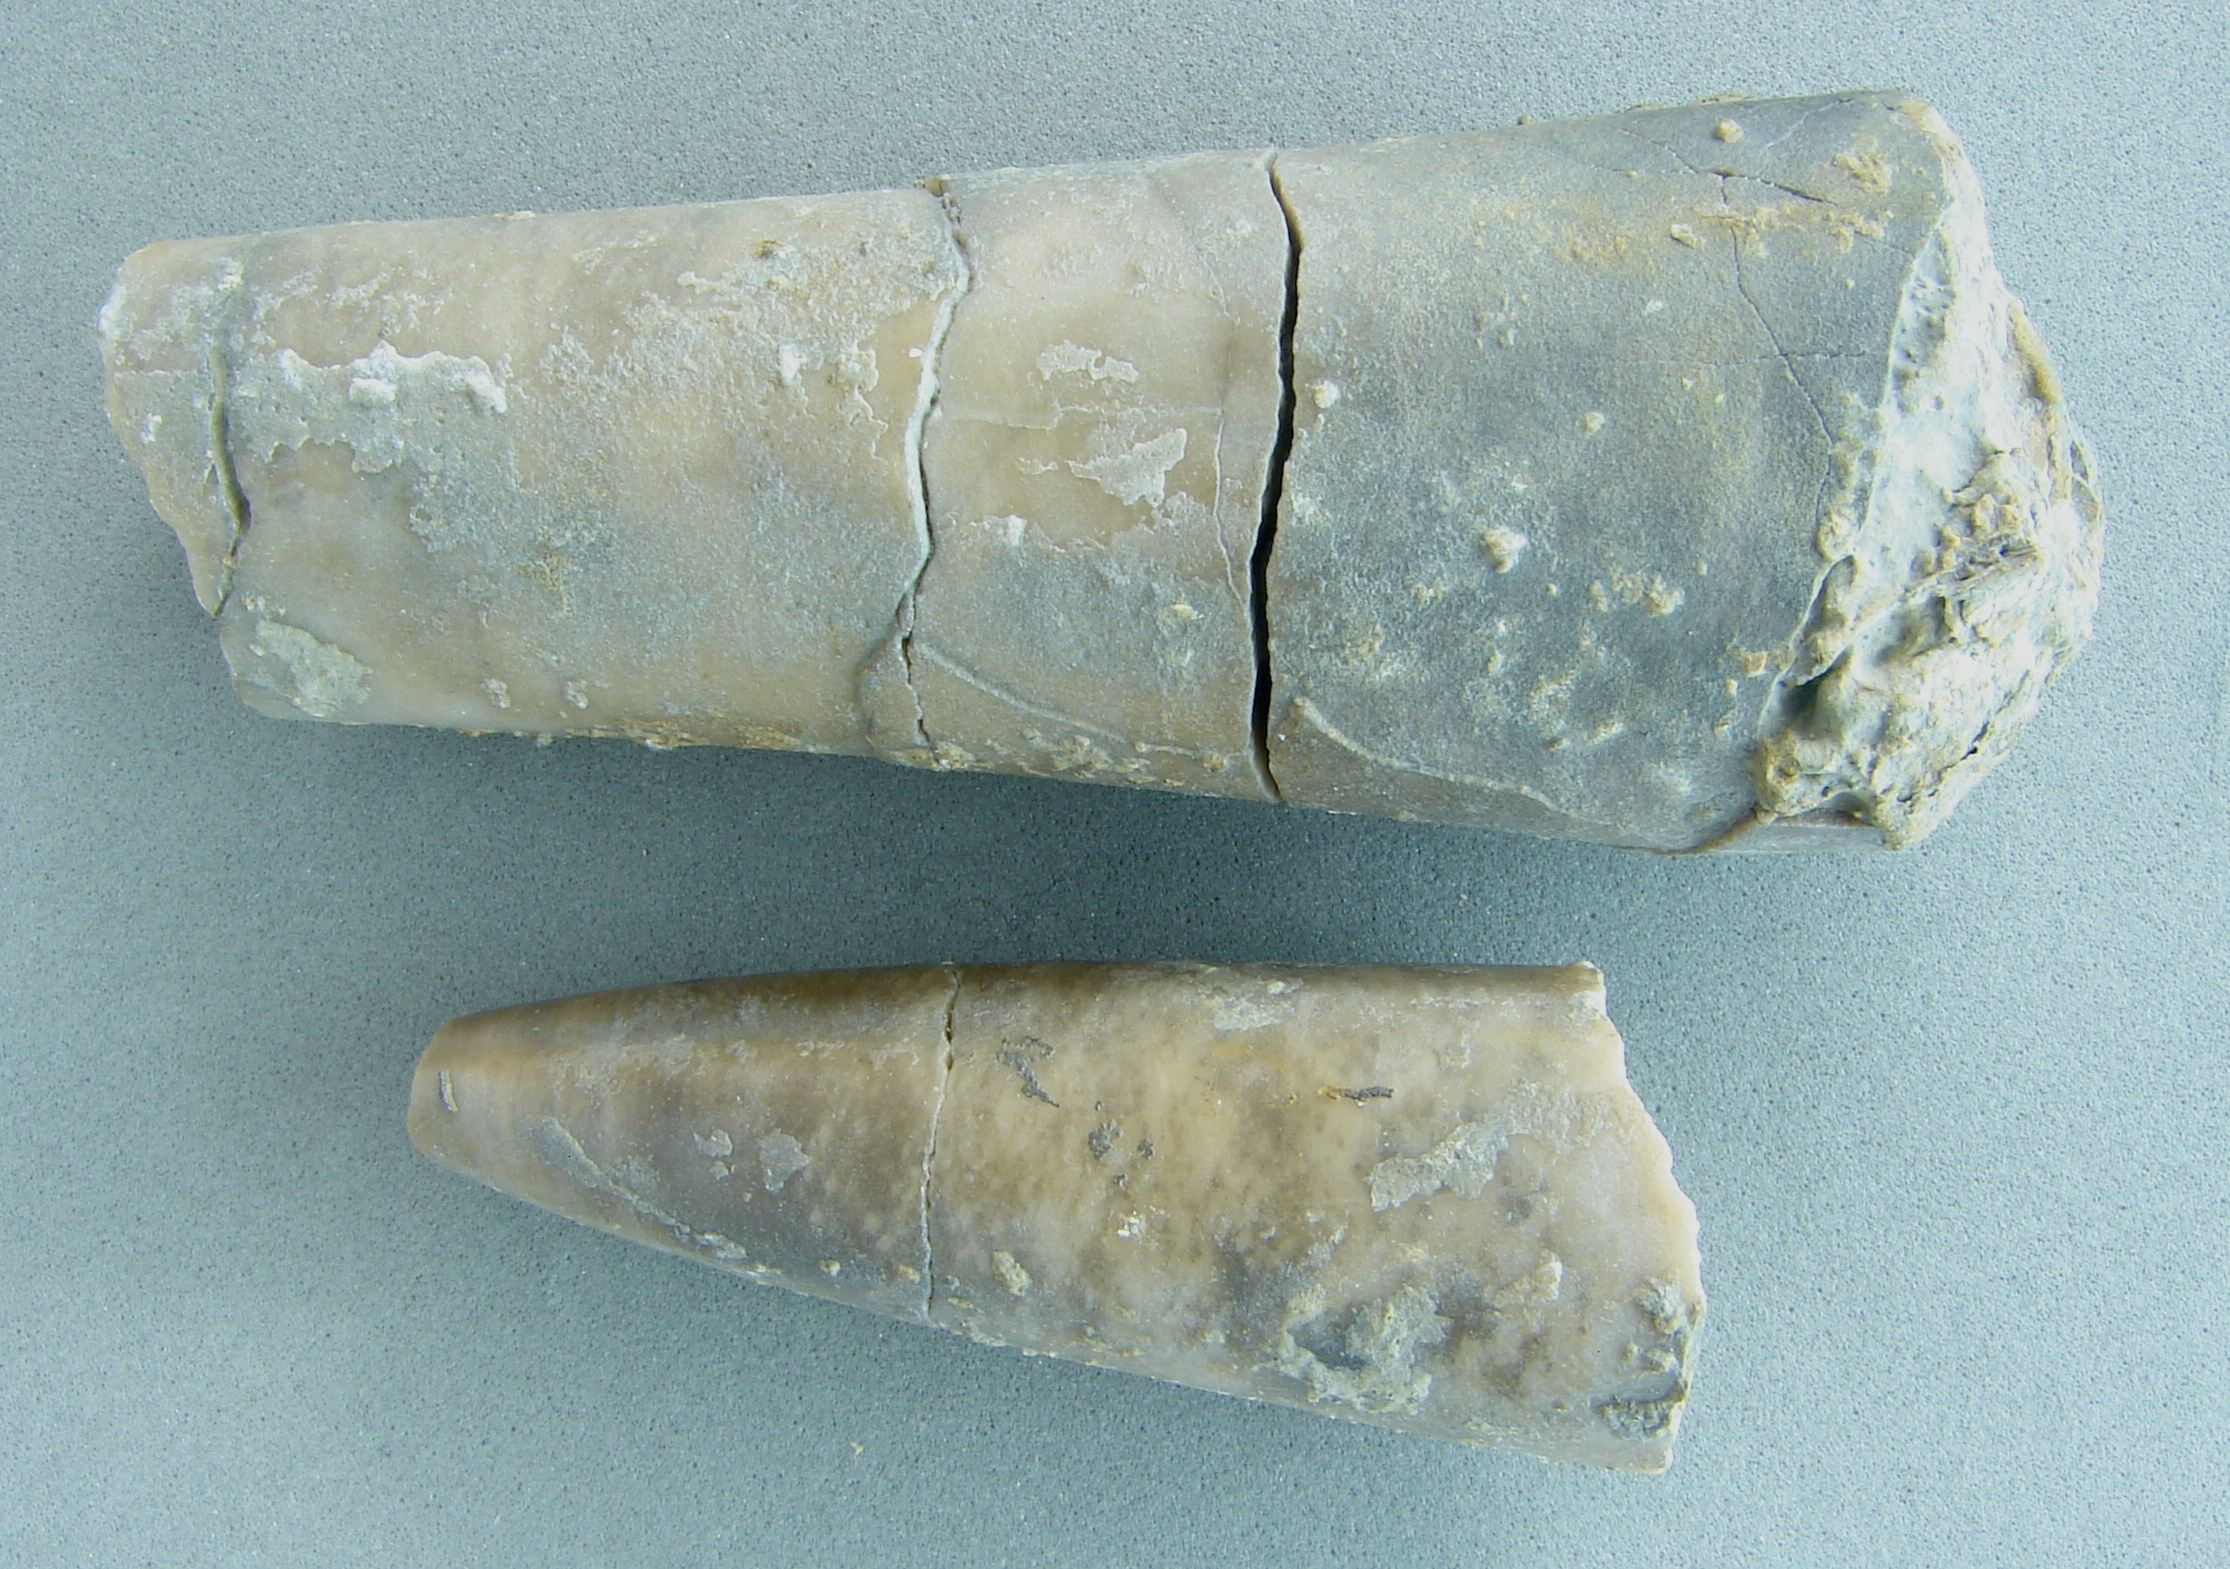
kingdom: Animalia
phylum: Mollusca
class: Cephalopoda
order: Belemnitida
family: Megateuthididae
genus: Acrocoelites
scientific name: Acrocoelites
